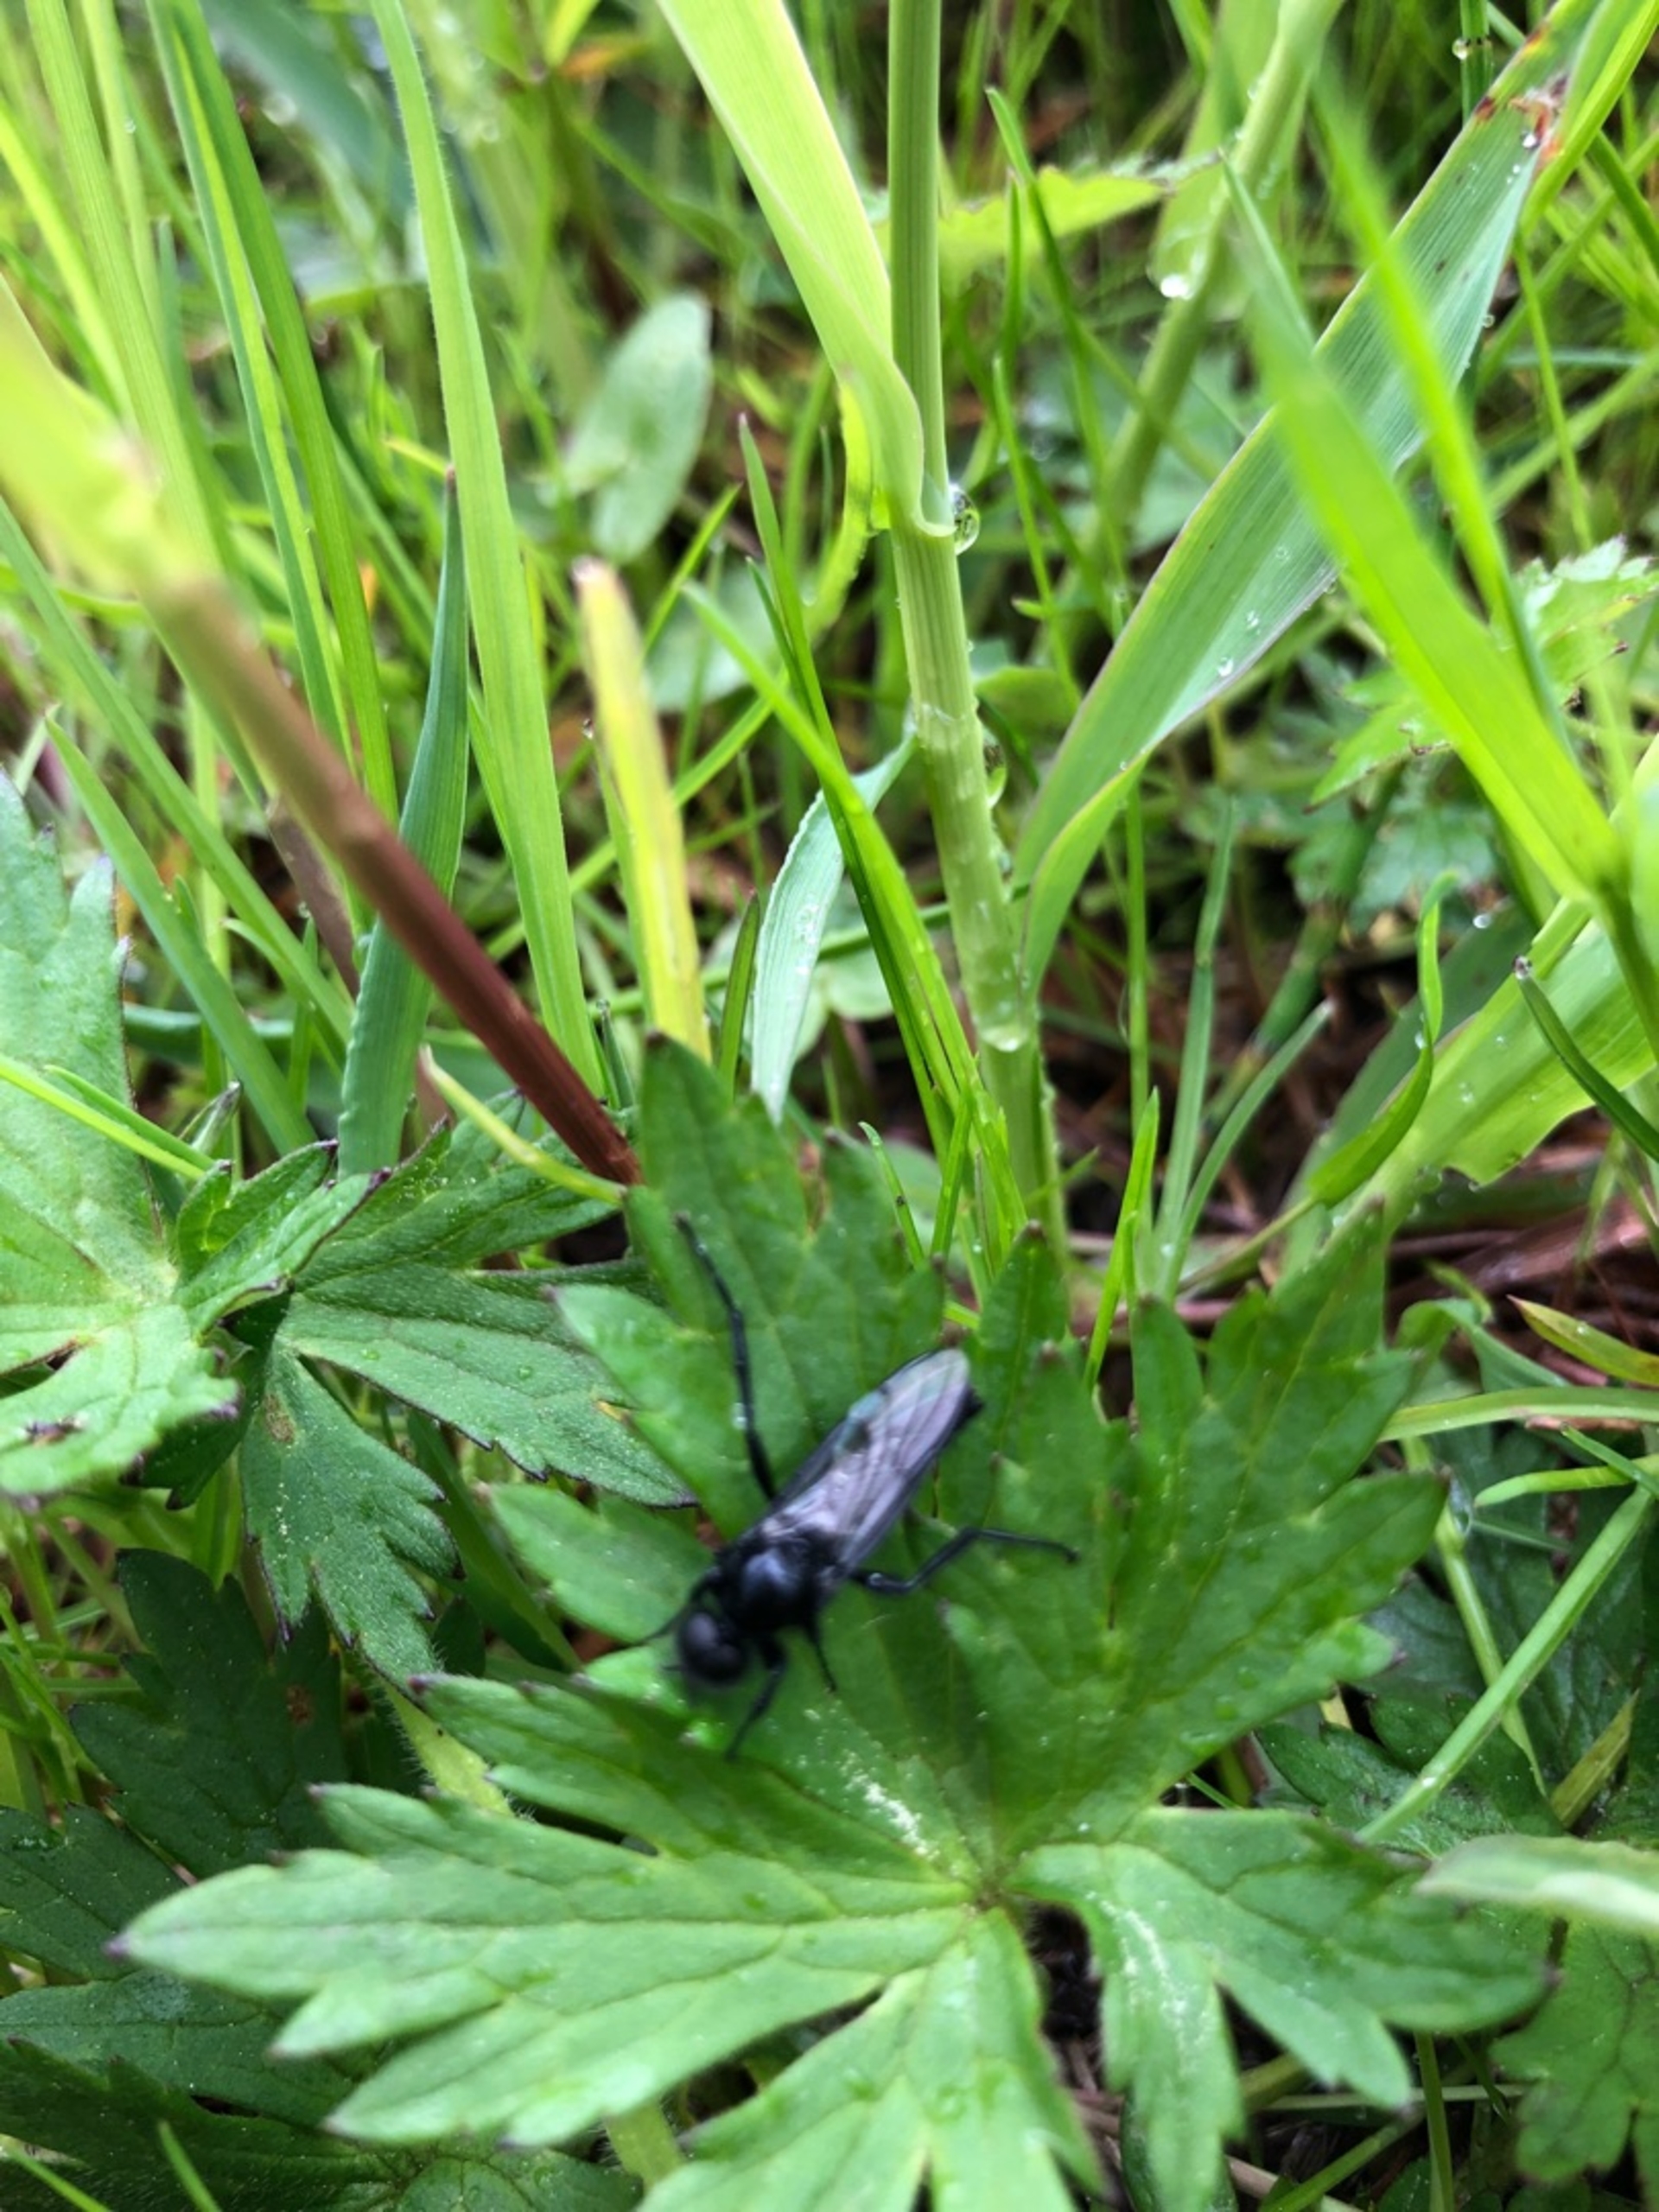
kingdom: Animalia
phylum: Arthropoda
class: Insecta
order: Diptera
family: Bibionidae
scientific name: Bibionidae
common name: Hårmyg
